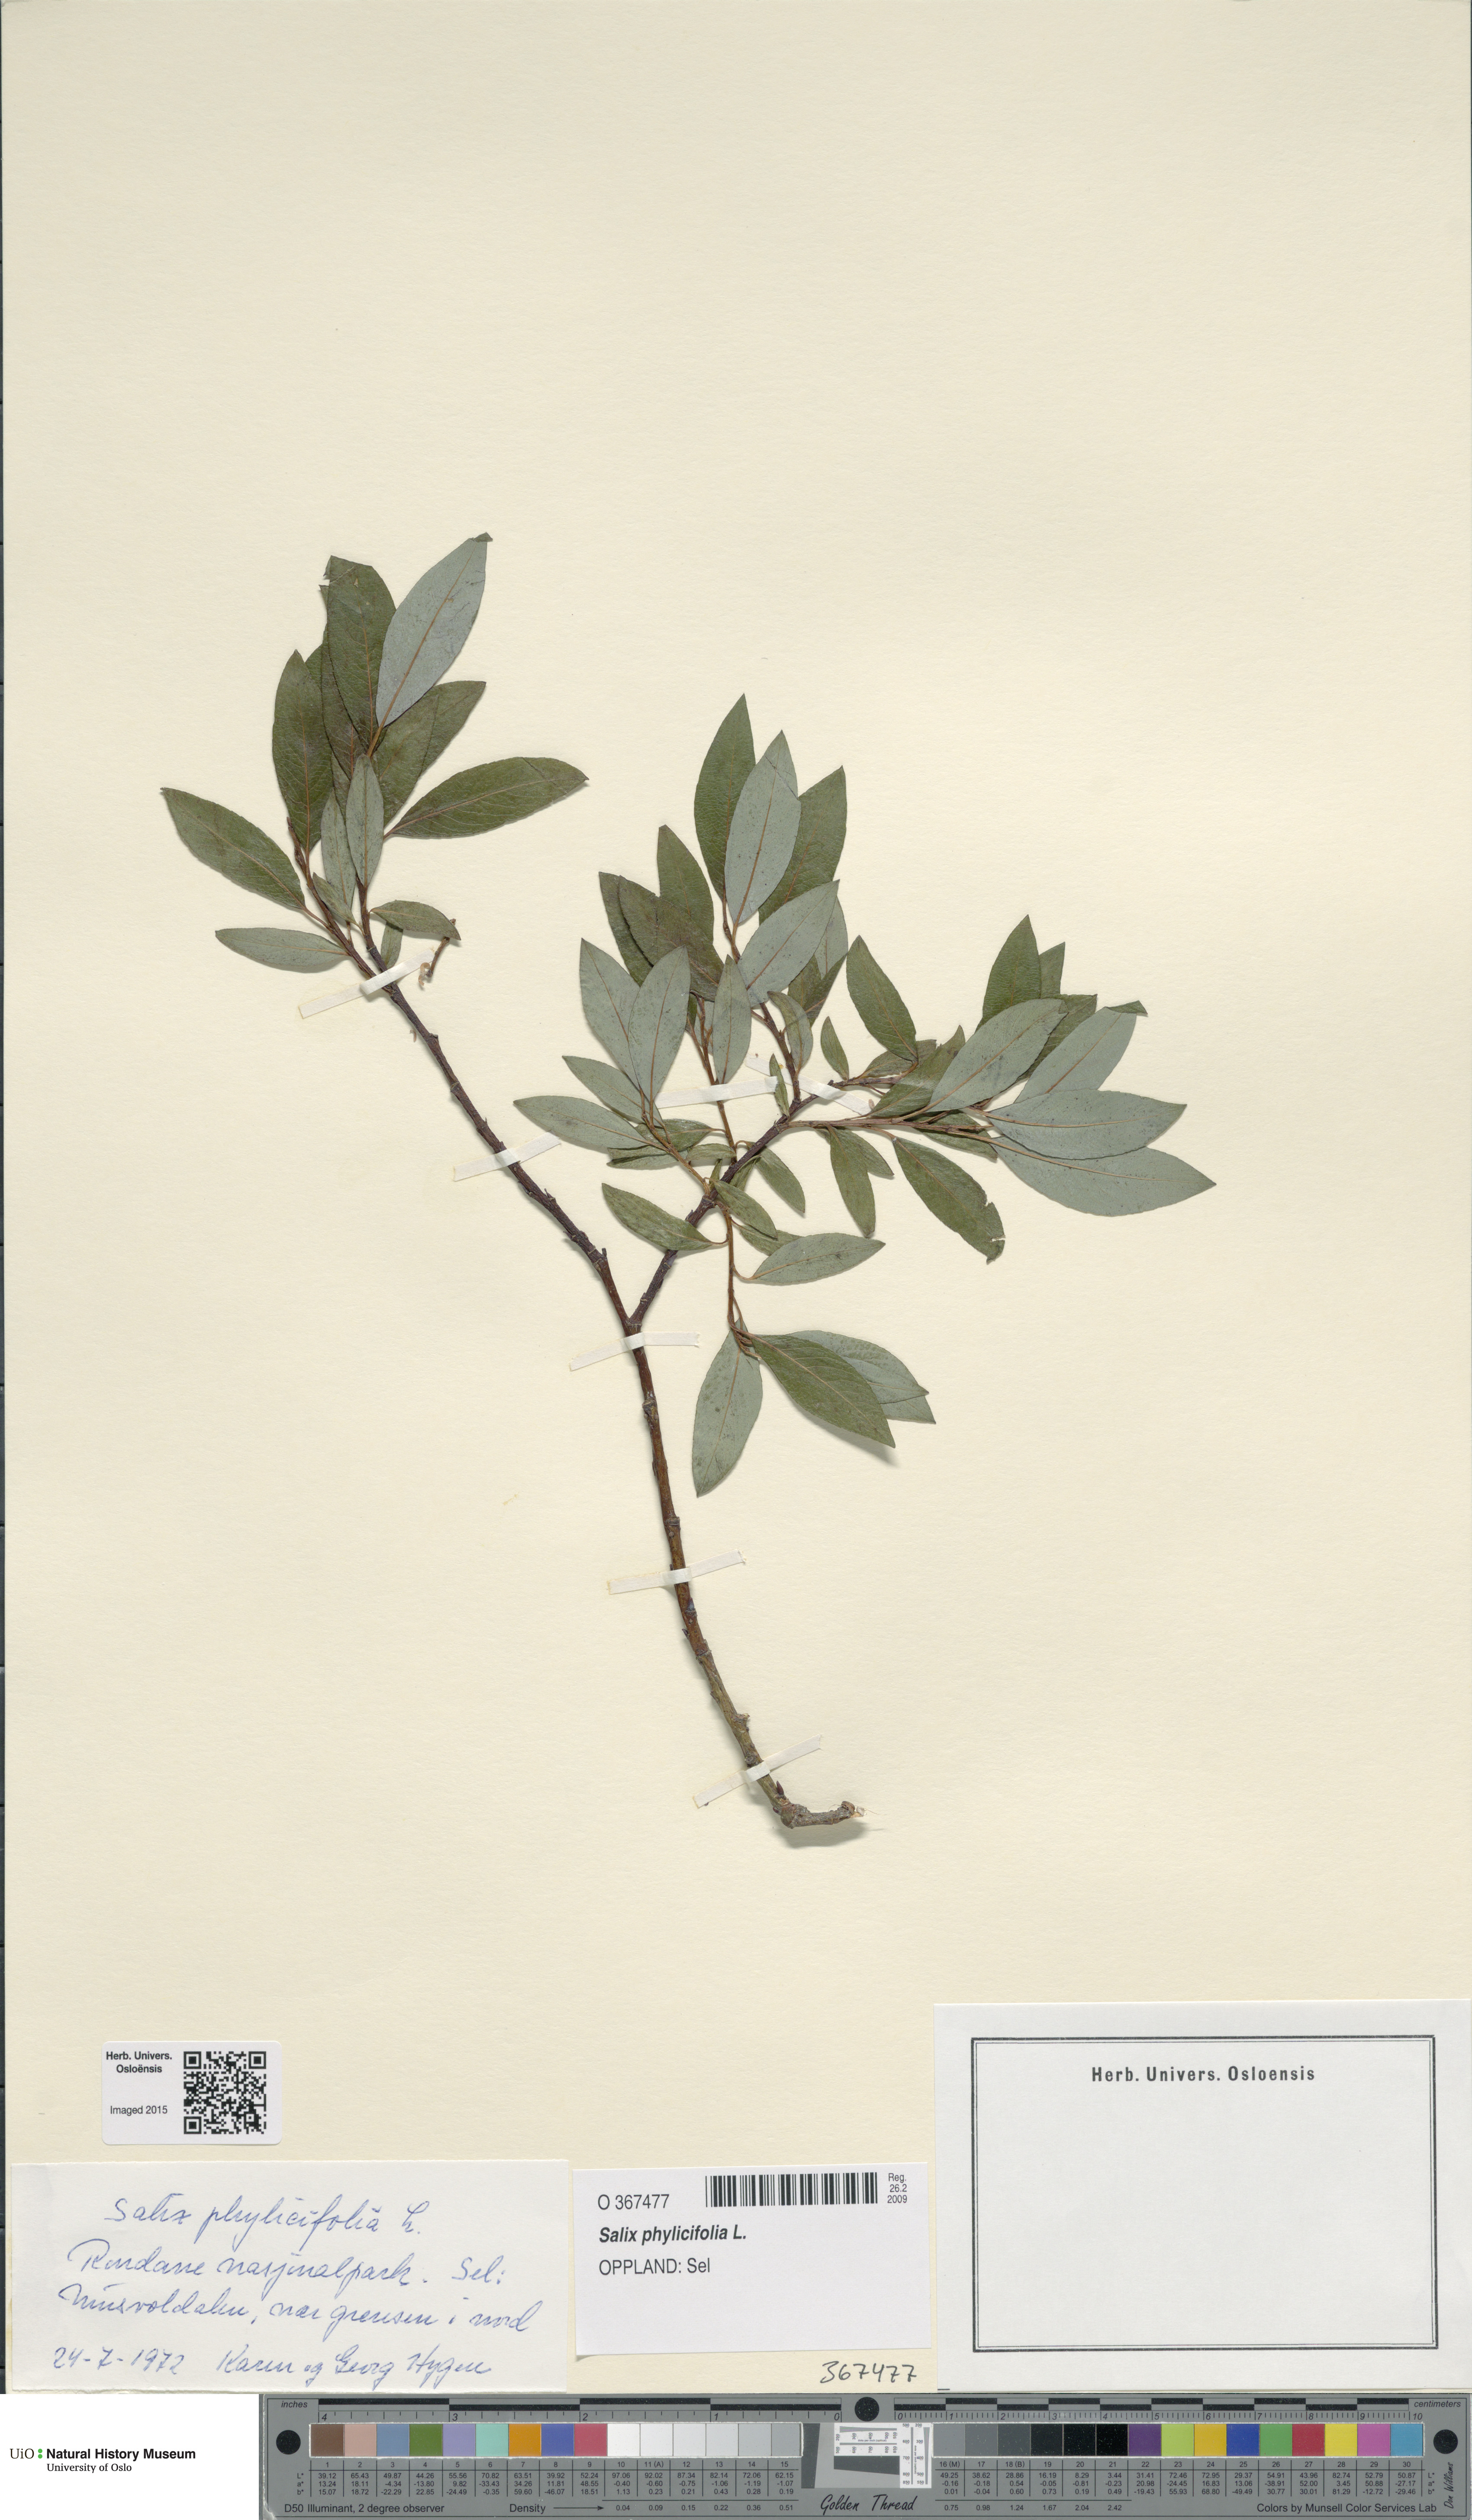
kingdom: Plantae
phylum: Tracheophyta
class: Magnoliopsida
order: Malpighiales
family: Salicaceae
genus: Salix
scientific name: Salix phylicifolia
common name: Tea-leaved willow
